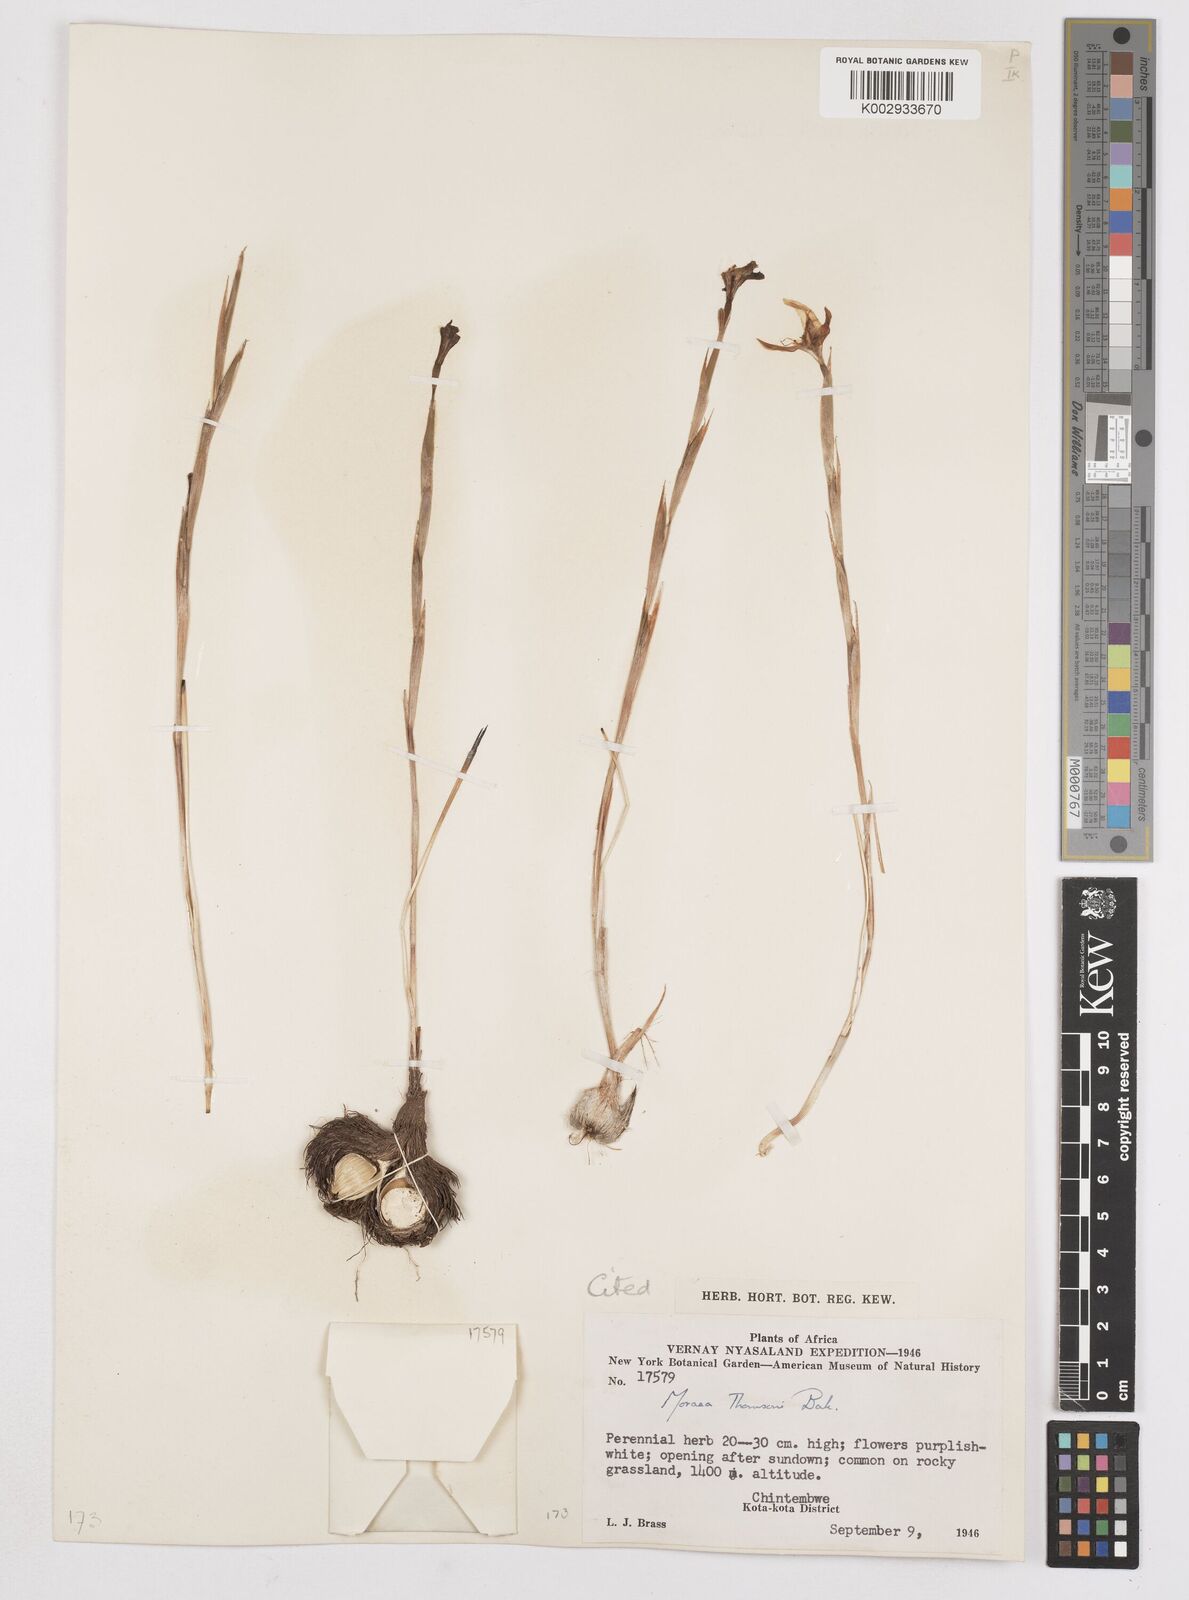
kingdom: Plantae
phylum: Tracheophyta
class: Liliopsida
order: Asparagales
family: Iridaceae
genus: Moraea
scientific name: Moraea thomsonii
